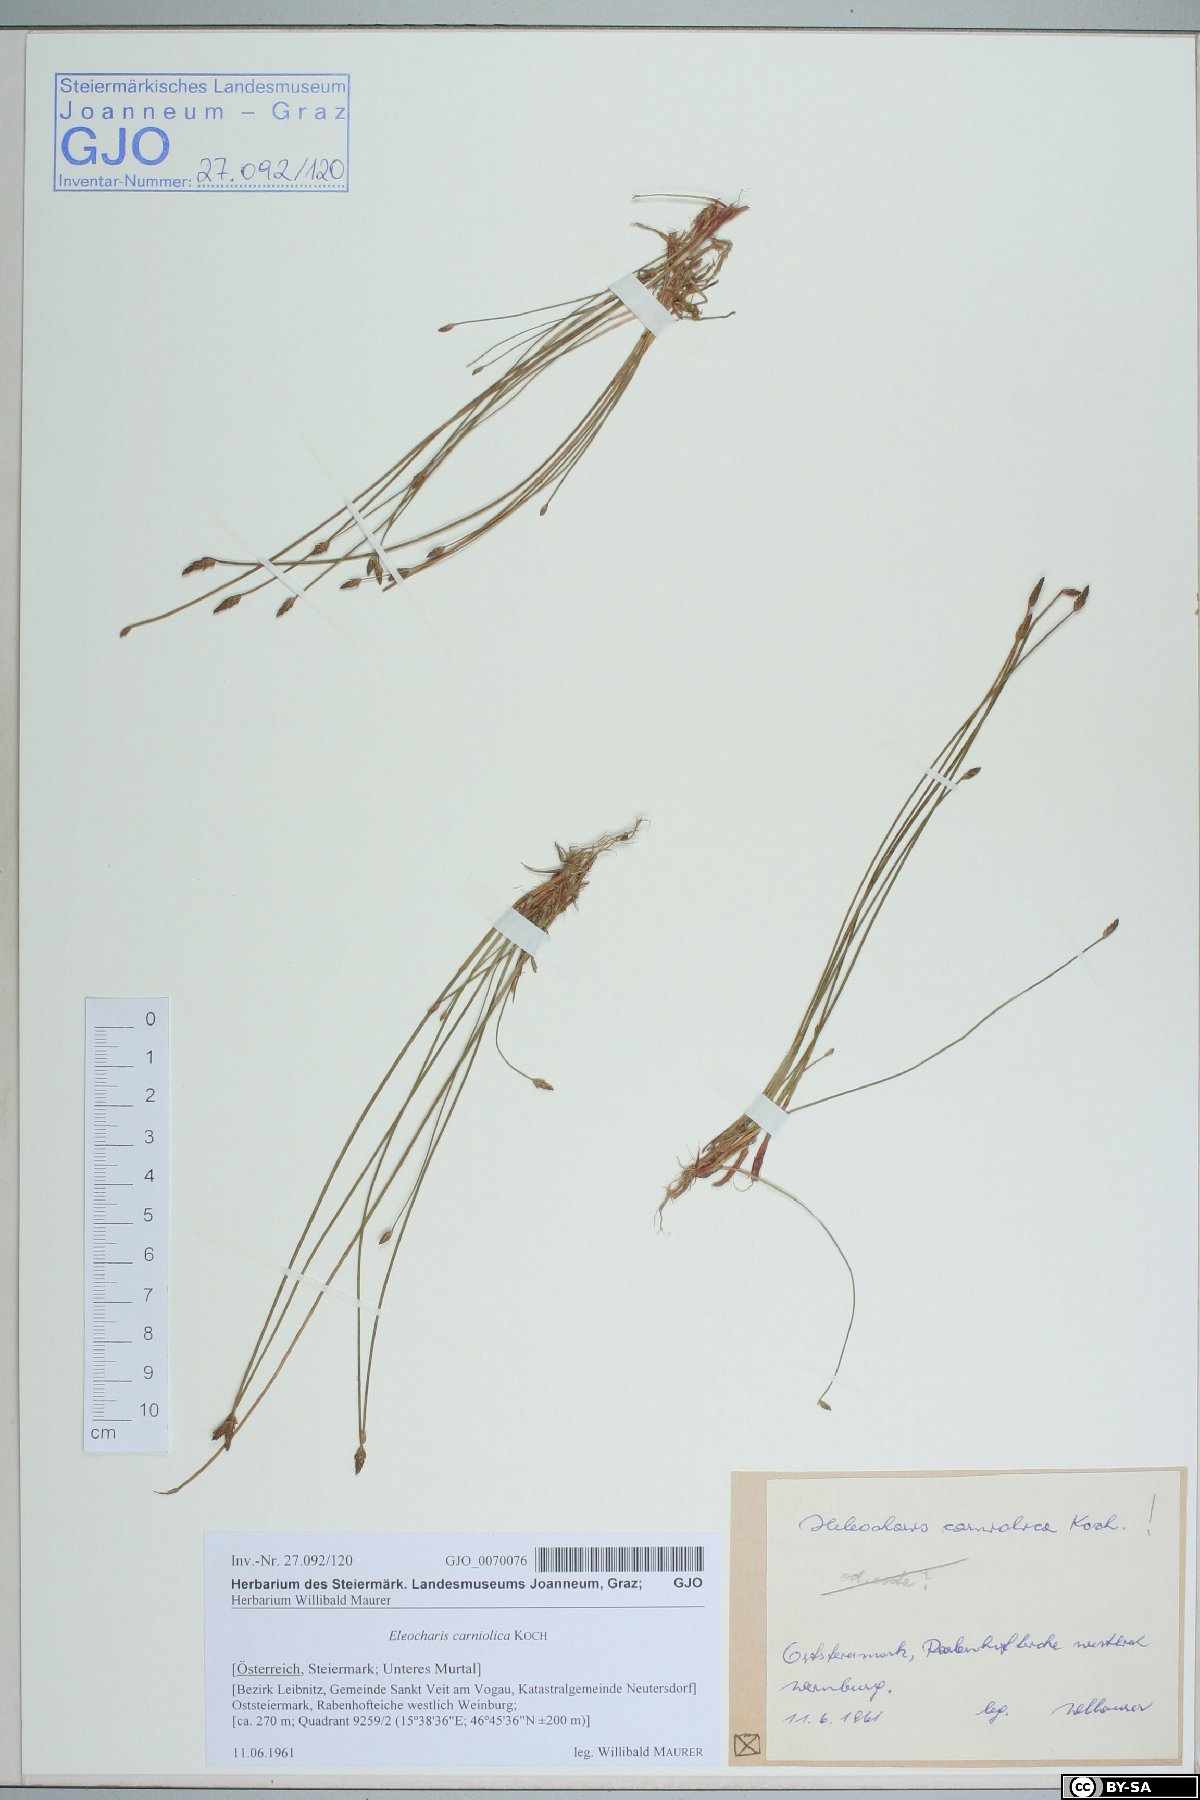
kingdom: Plantae
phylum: Tracheophyta
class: Liliopsida
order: Poales
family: Cyperaceae
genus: Eleocharis
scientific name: Eleocharis carniolica
